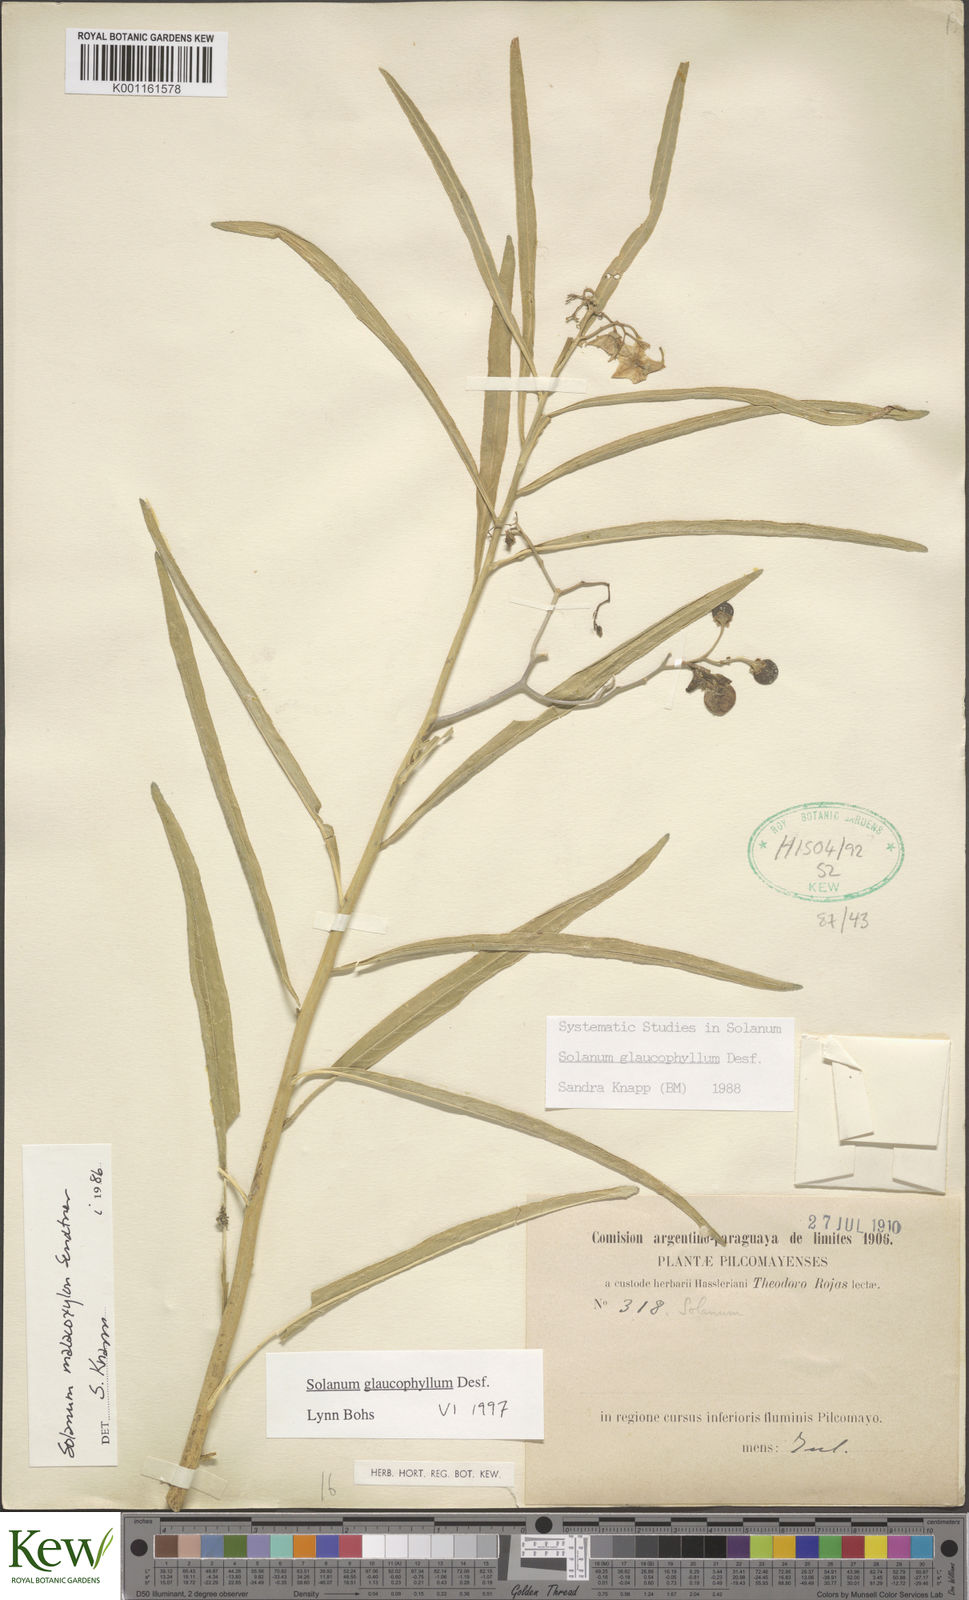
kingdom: Plantae
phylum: Tracheophyta
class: Magnoliopsida
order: Solanales
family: Solanaceae
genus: Solanum
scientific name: Solanum glaucophyllum
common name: Waxyleaf nightshade
